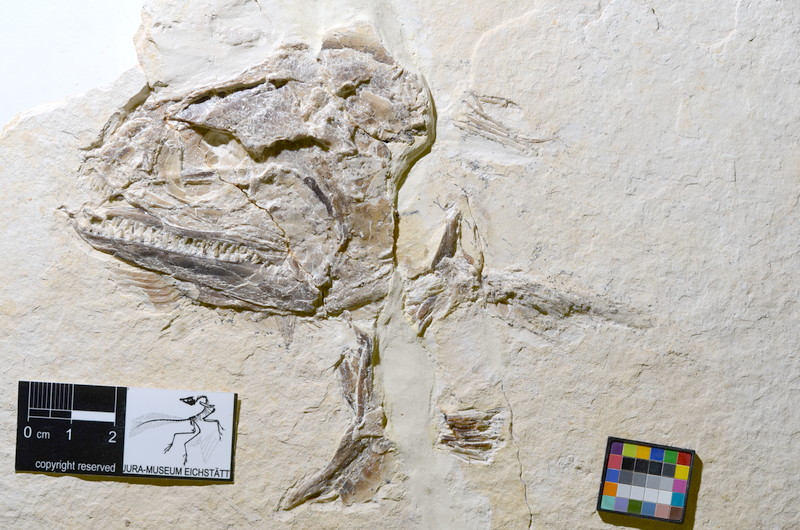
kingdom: Animalia
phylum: Chordata
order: Amiiformes
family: Caturidae
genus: Caturus
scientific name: Caturus furcatus
